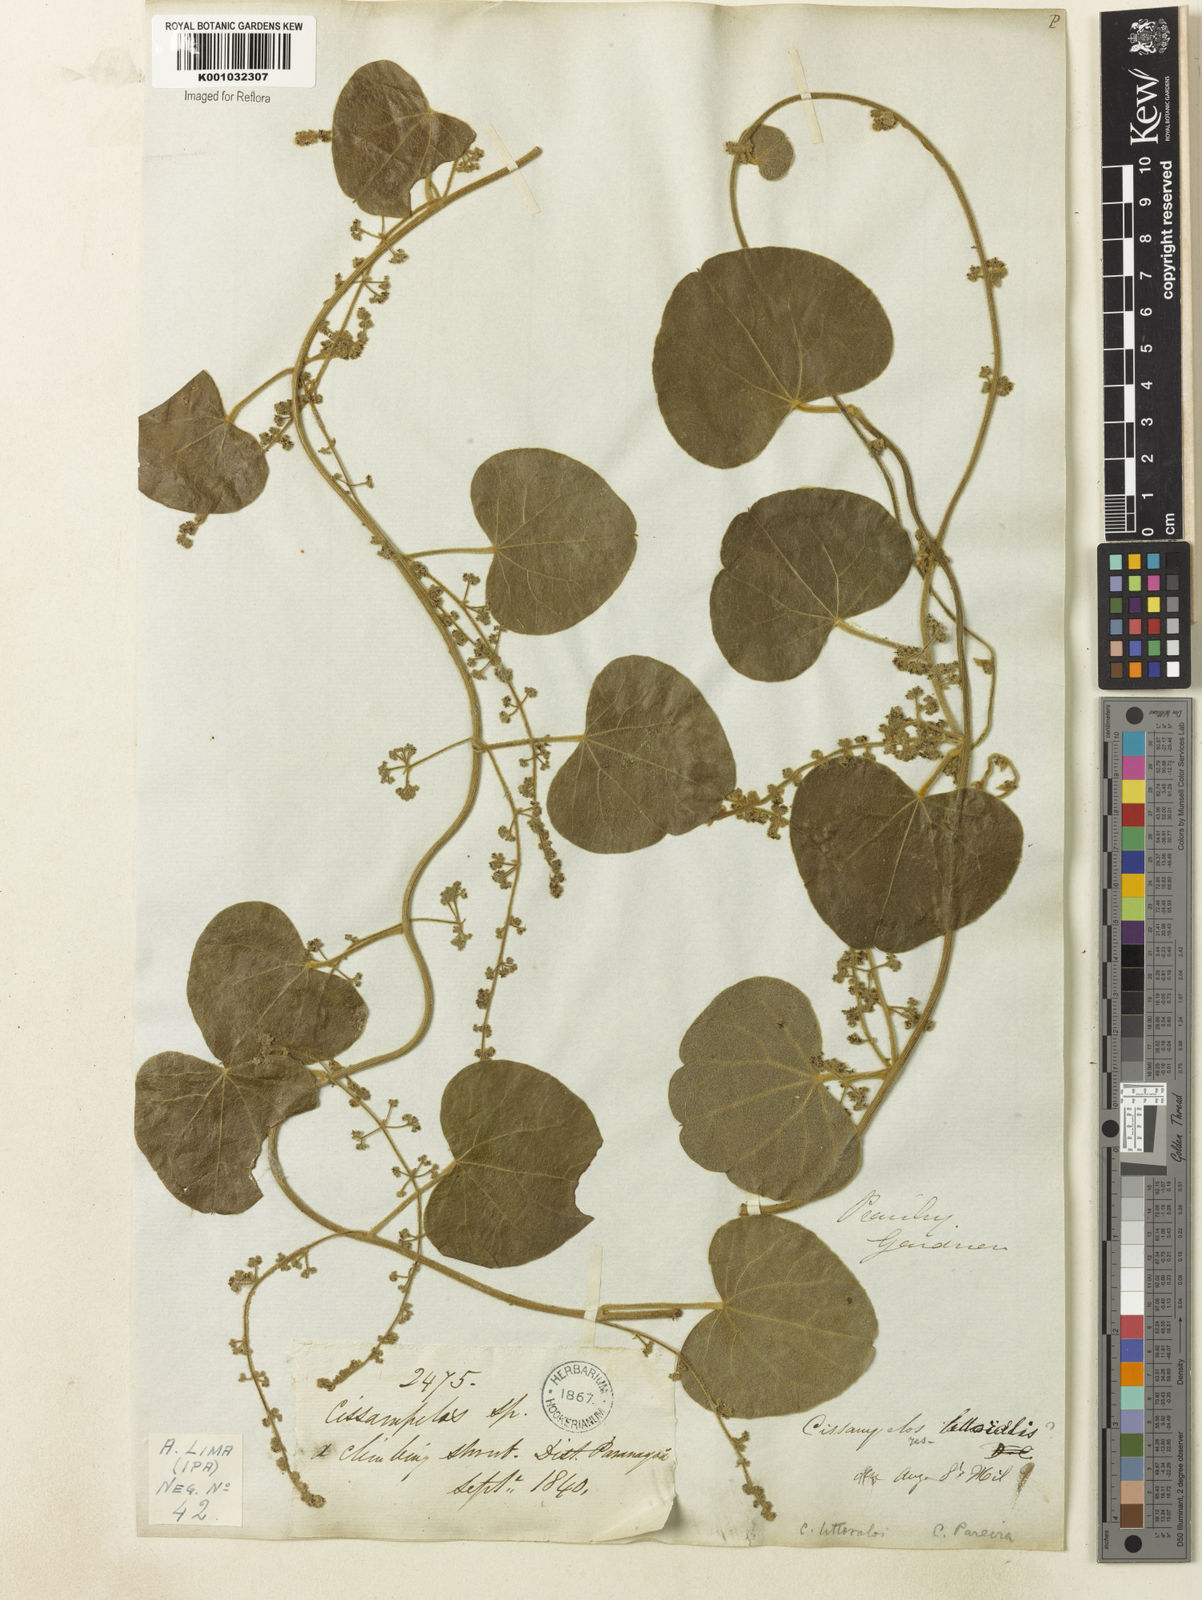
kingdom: Plantae
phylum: Tracheophyta
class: Magnoliopsida
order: Ranunculales
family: Menispermaceae
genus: Cissampelos
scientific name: Cissampelos pareira
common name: Velvetleaf
